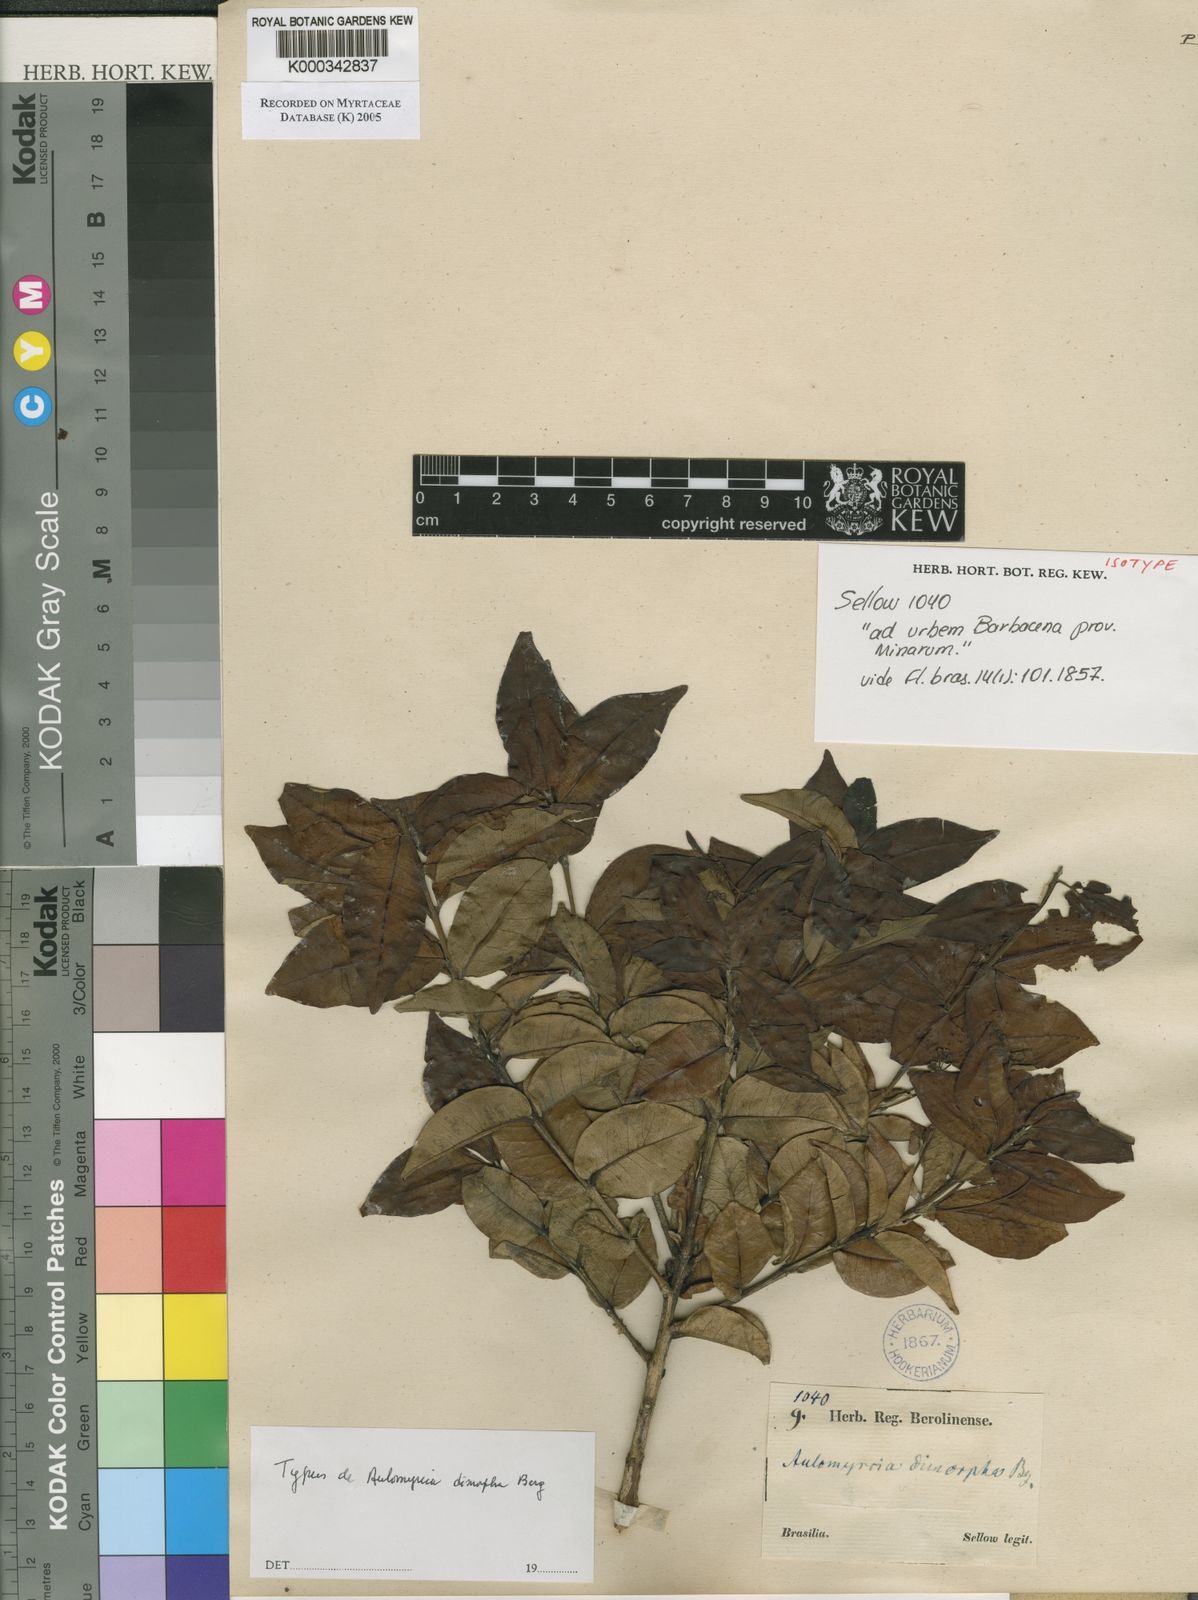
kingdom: Plantae
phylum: Tracheophyta
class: Magnoliopsida
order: Myrtales
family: Myrtaceae
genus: Myrcia
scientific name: Myrcia dimorpha
